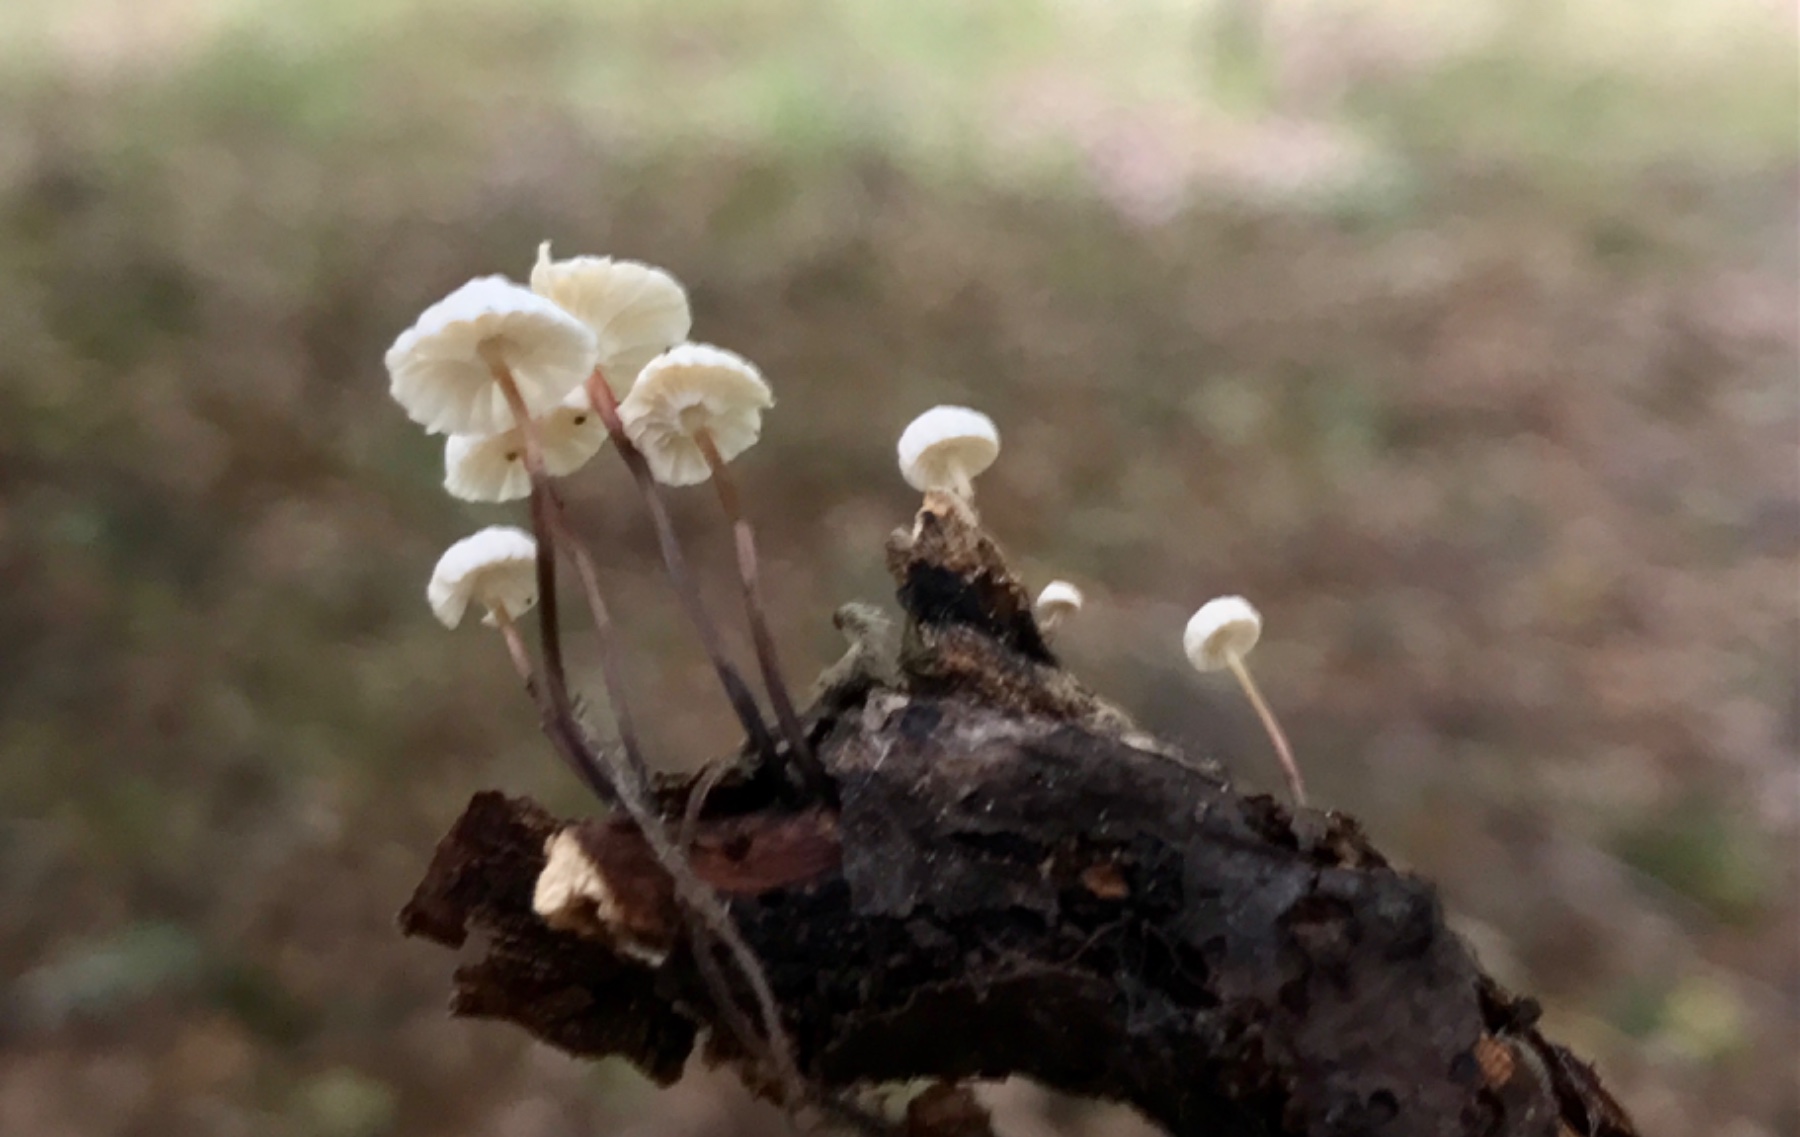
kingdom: Fungi
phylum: Basidiomycota
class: Agaricomycetes
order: Agaricales
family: Marasmiaceae
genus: Marasmius
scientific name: Marasmius rotula
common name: hjul-bruskhat
